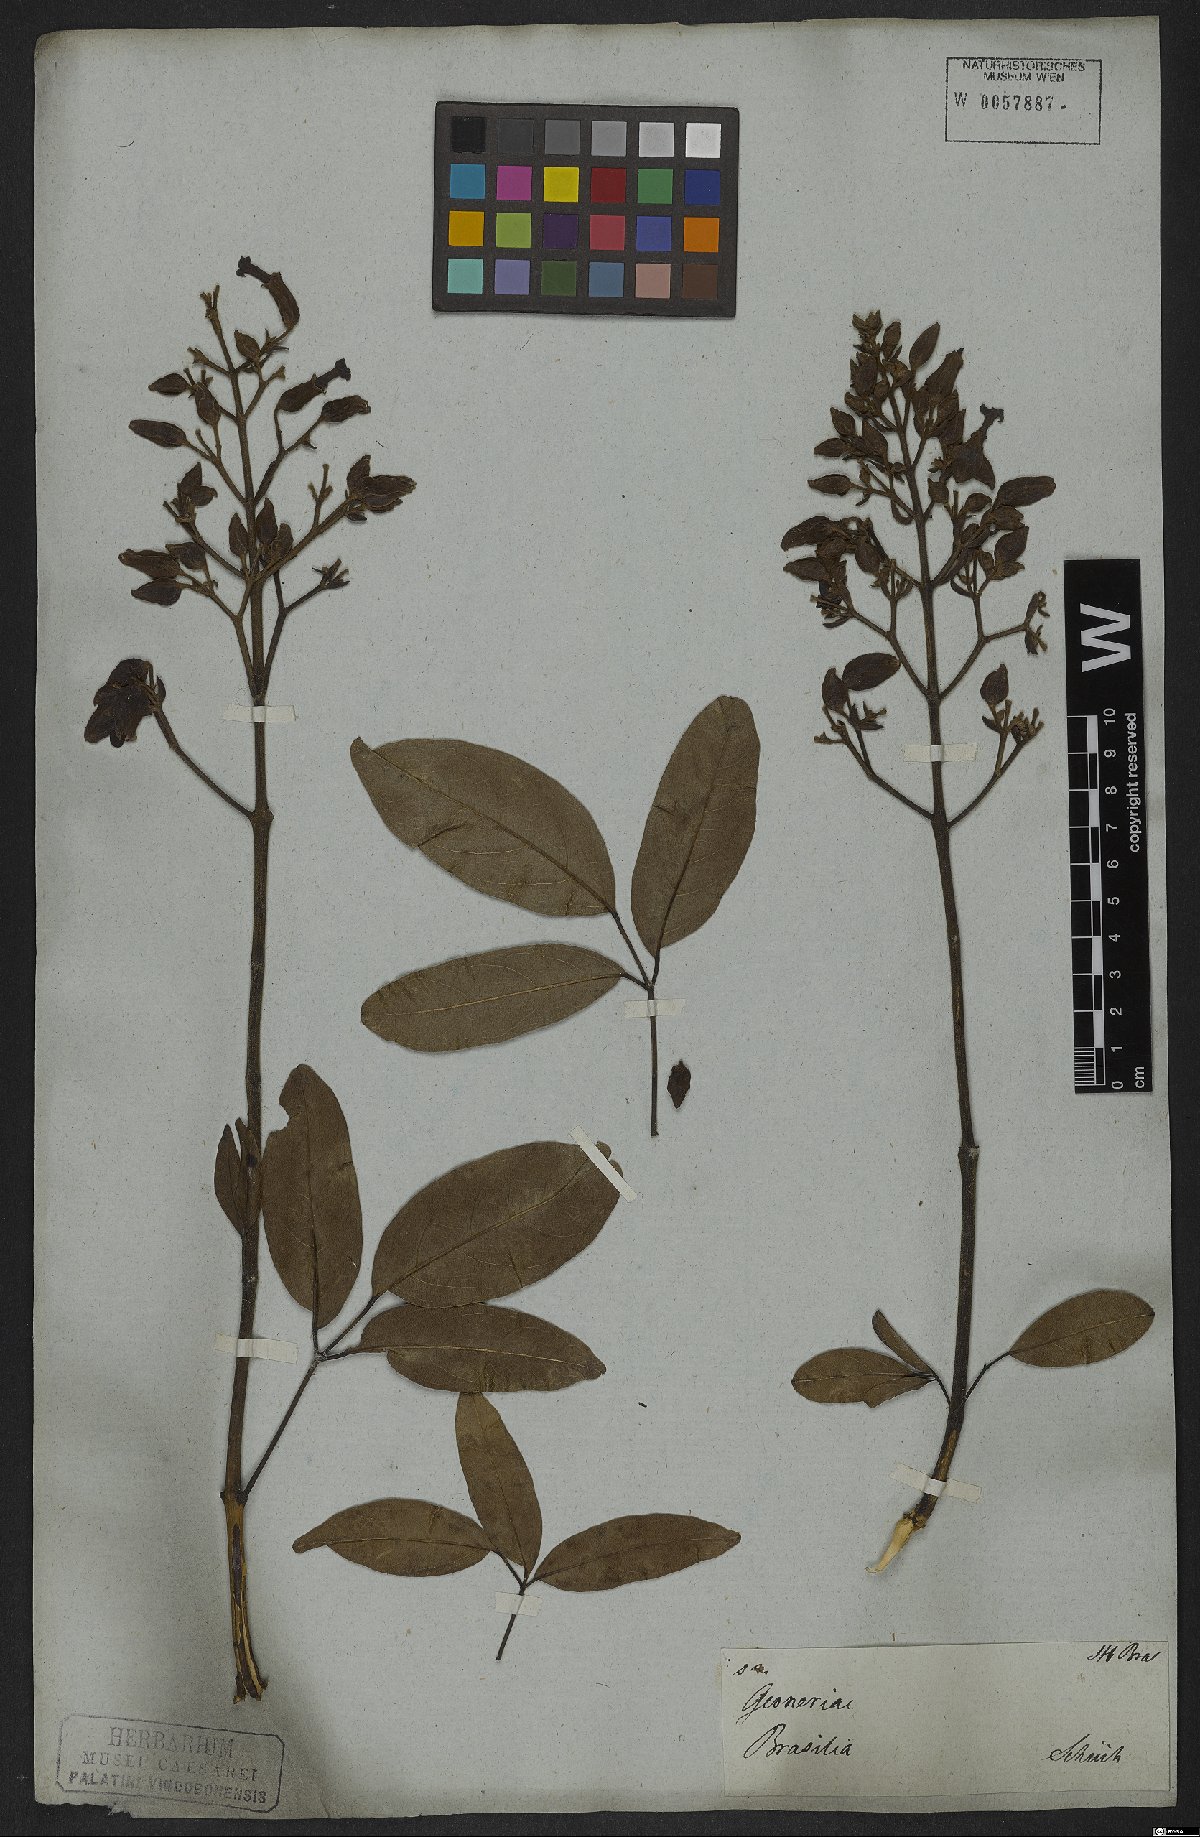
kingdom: Plantae
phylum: Tracheophyta
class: Magnoliopsida
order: Lamiales
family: Bignoniaceae
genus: Fridericia
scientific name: Fridericia speciosa
